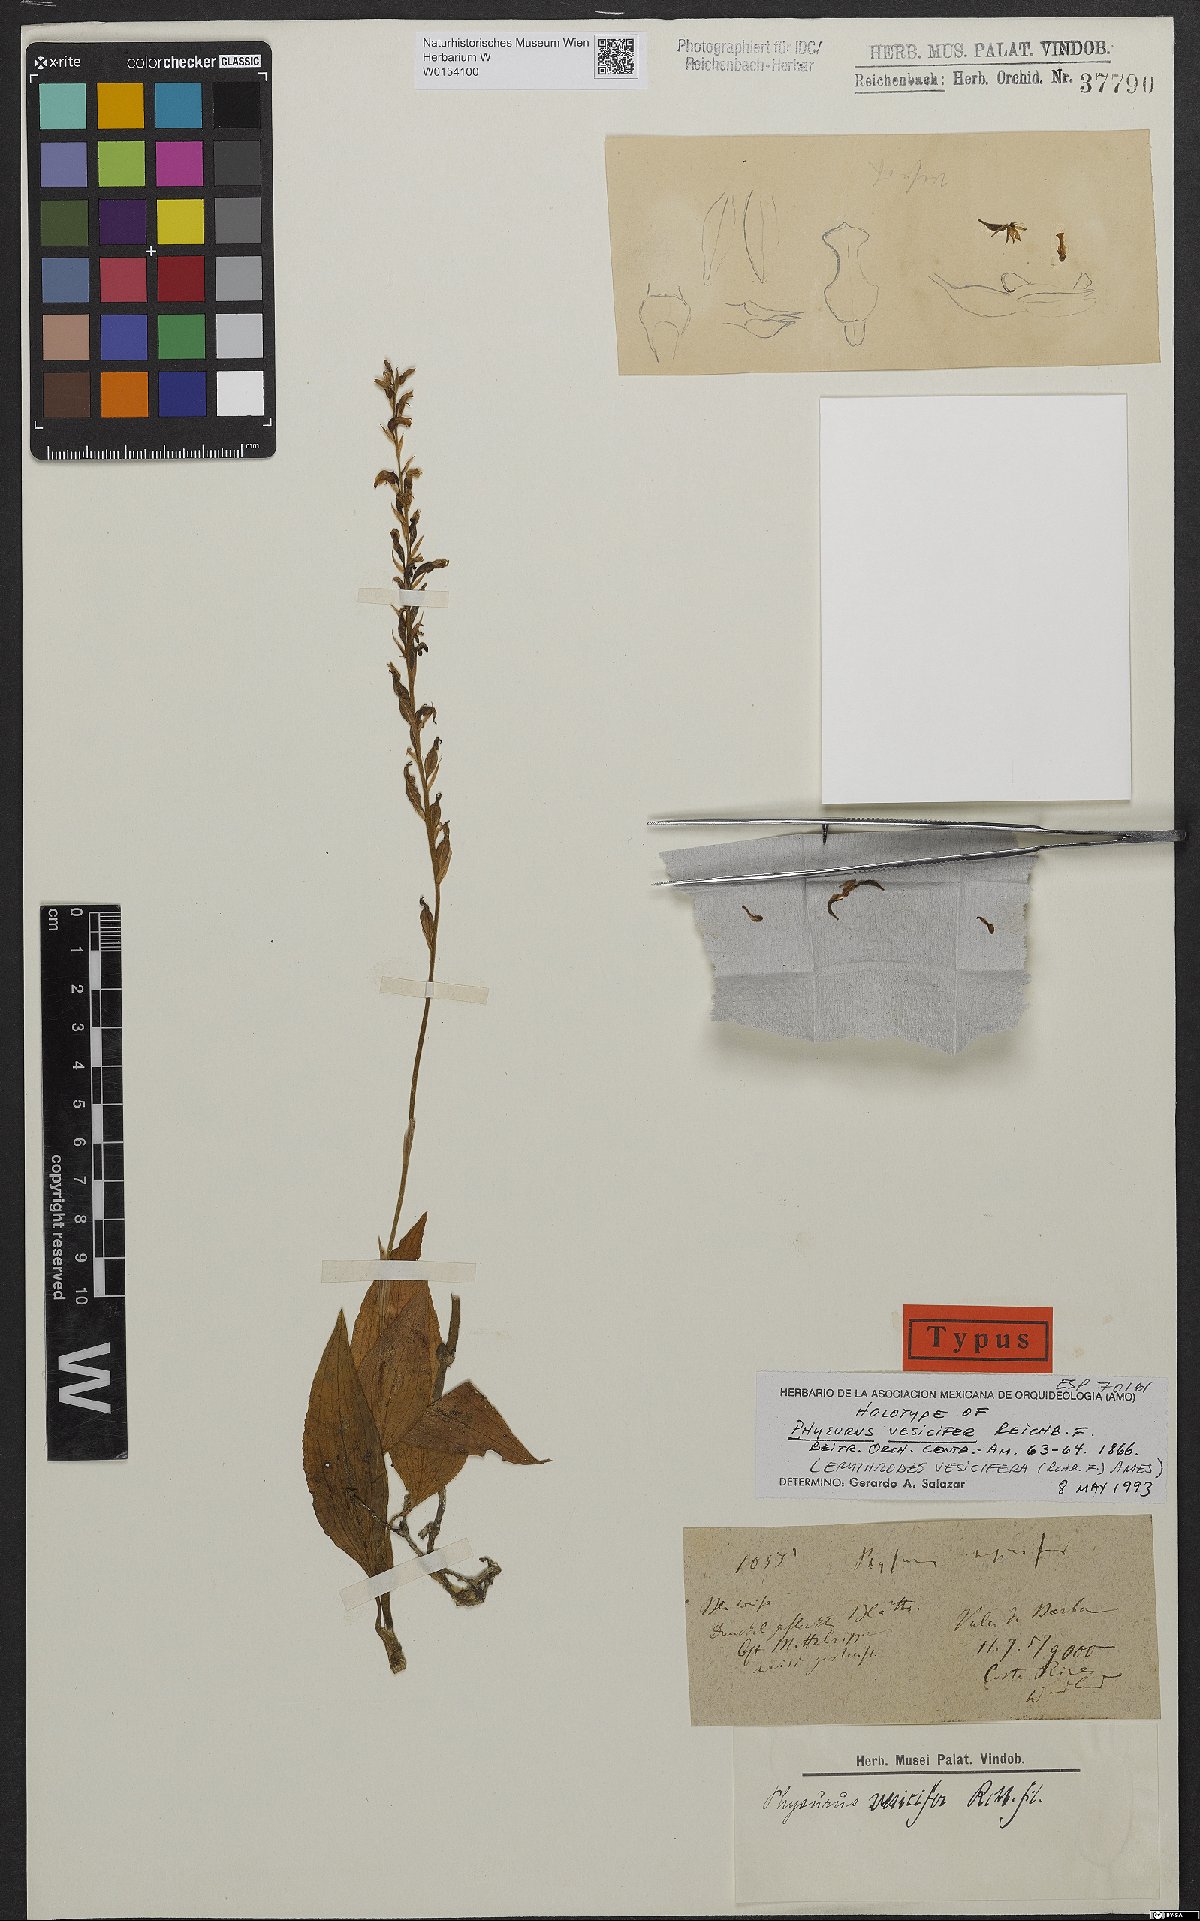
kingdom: Plantae
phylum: Tracheophyta
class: Liliopsida
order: Asparagales
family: Orchidaceae
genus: Microchilus
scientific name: Microchilus vesicifer
